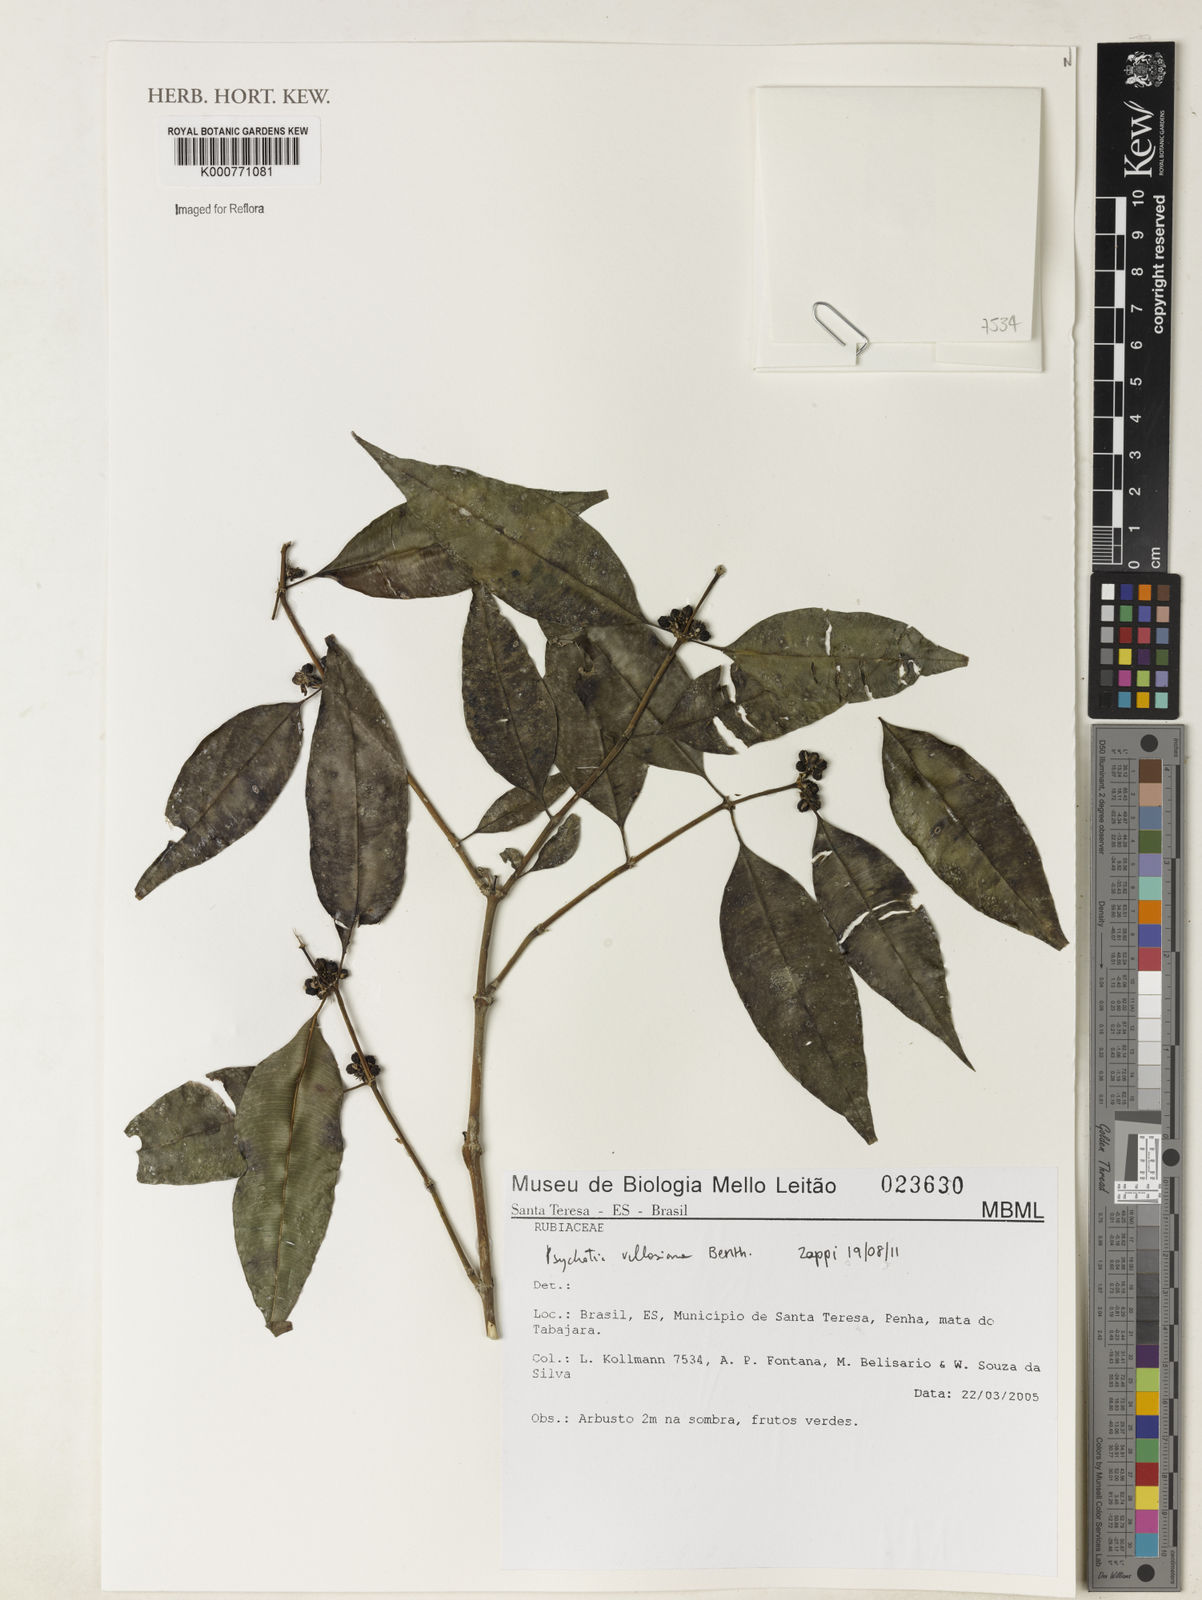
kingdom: Plantae
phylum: Tracheophyta
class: Magnoliopsida
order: Gentianales
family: Rubiaceae
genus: Palicourea
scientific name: Palicourea sessilis
